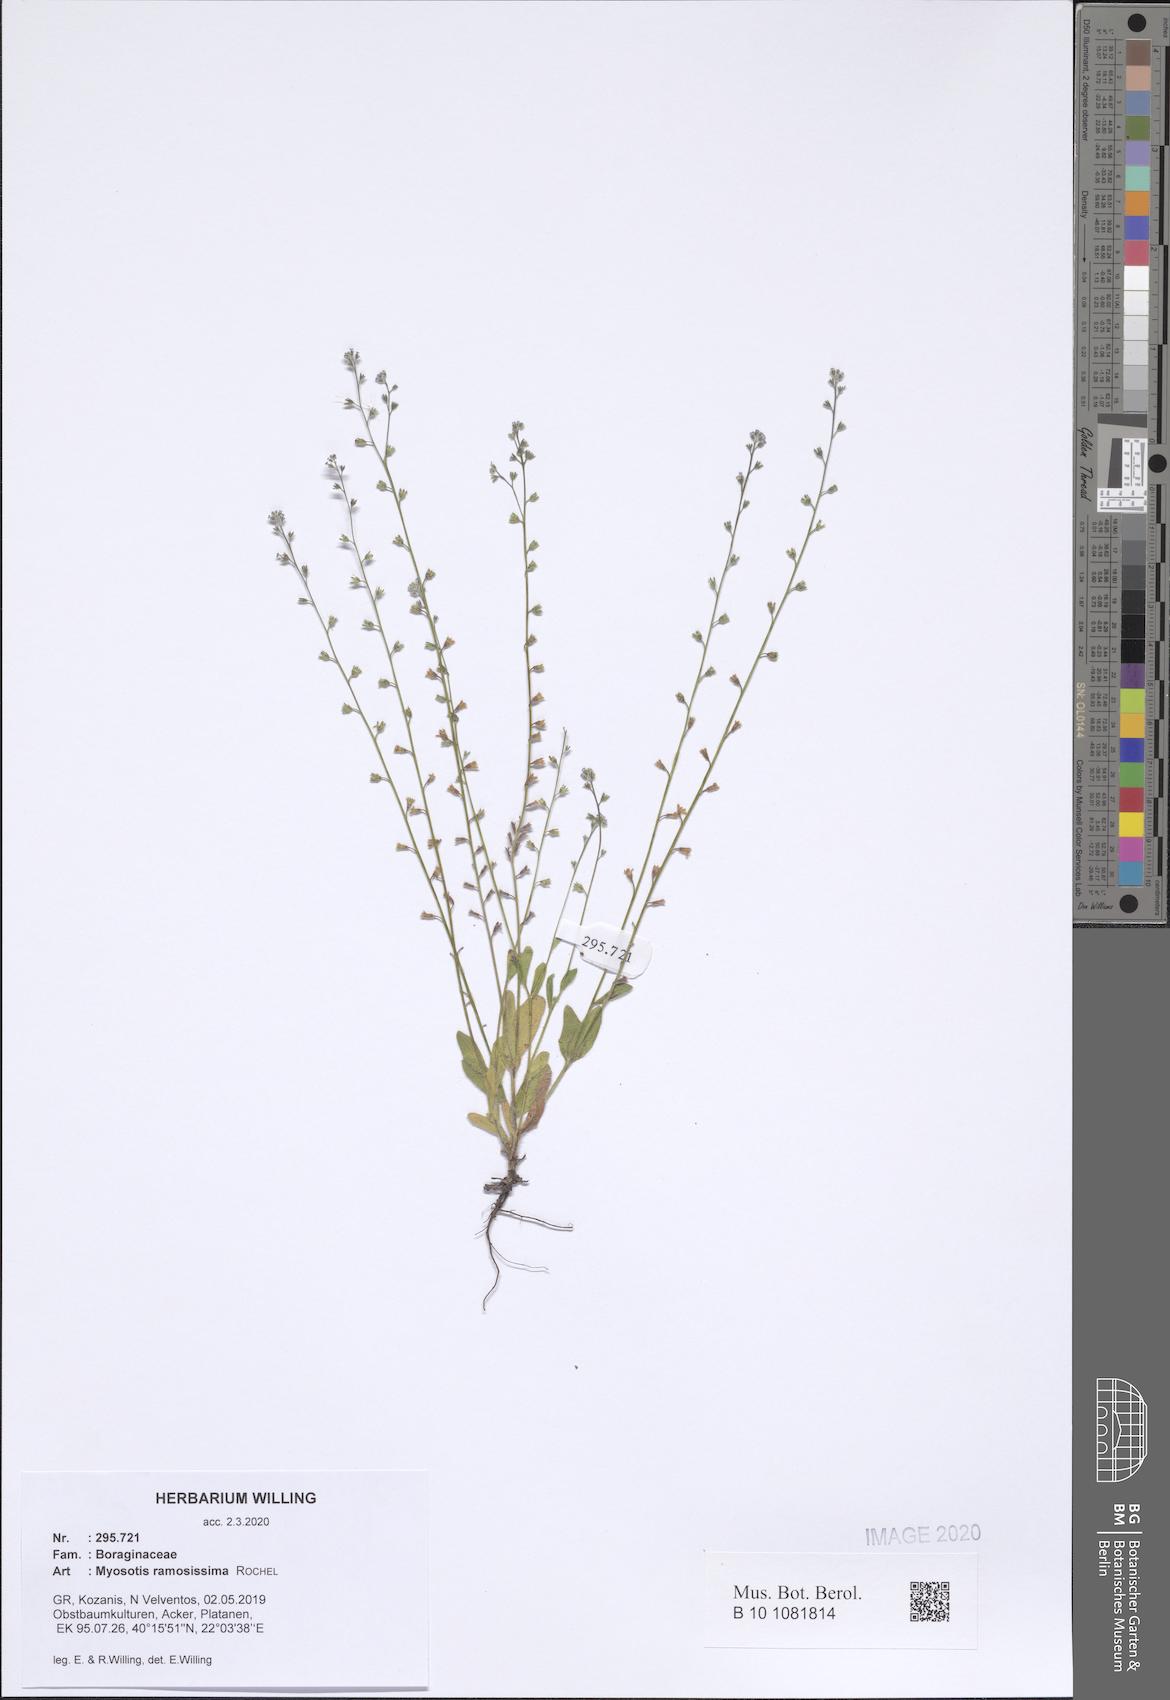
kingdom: Plantae
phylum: Tracheophyta
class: Magnoliopsida
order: Boraginales
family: Boraginaceae
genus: Myosotis
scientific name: Myosotis ramosissima
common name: Early forget-me-not
